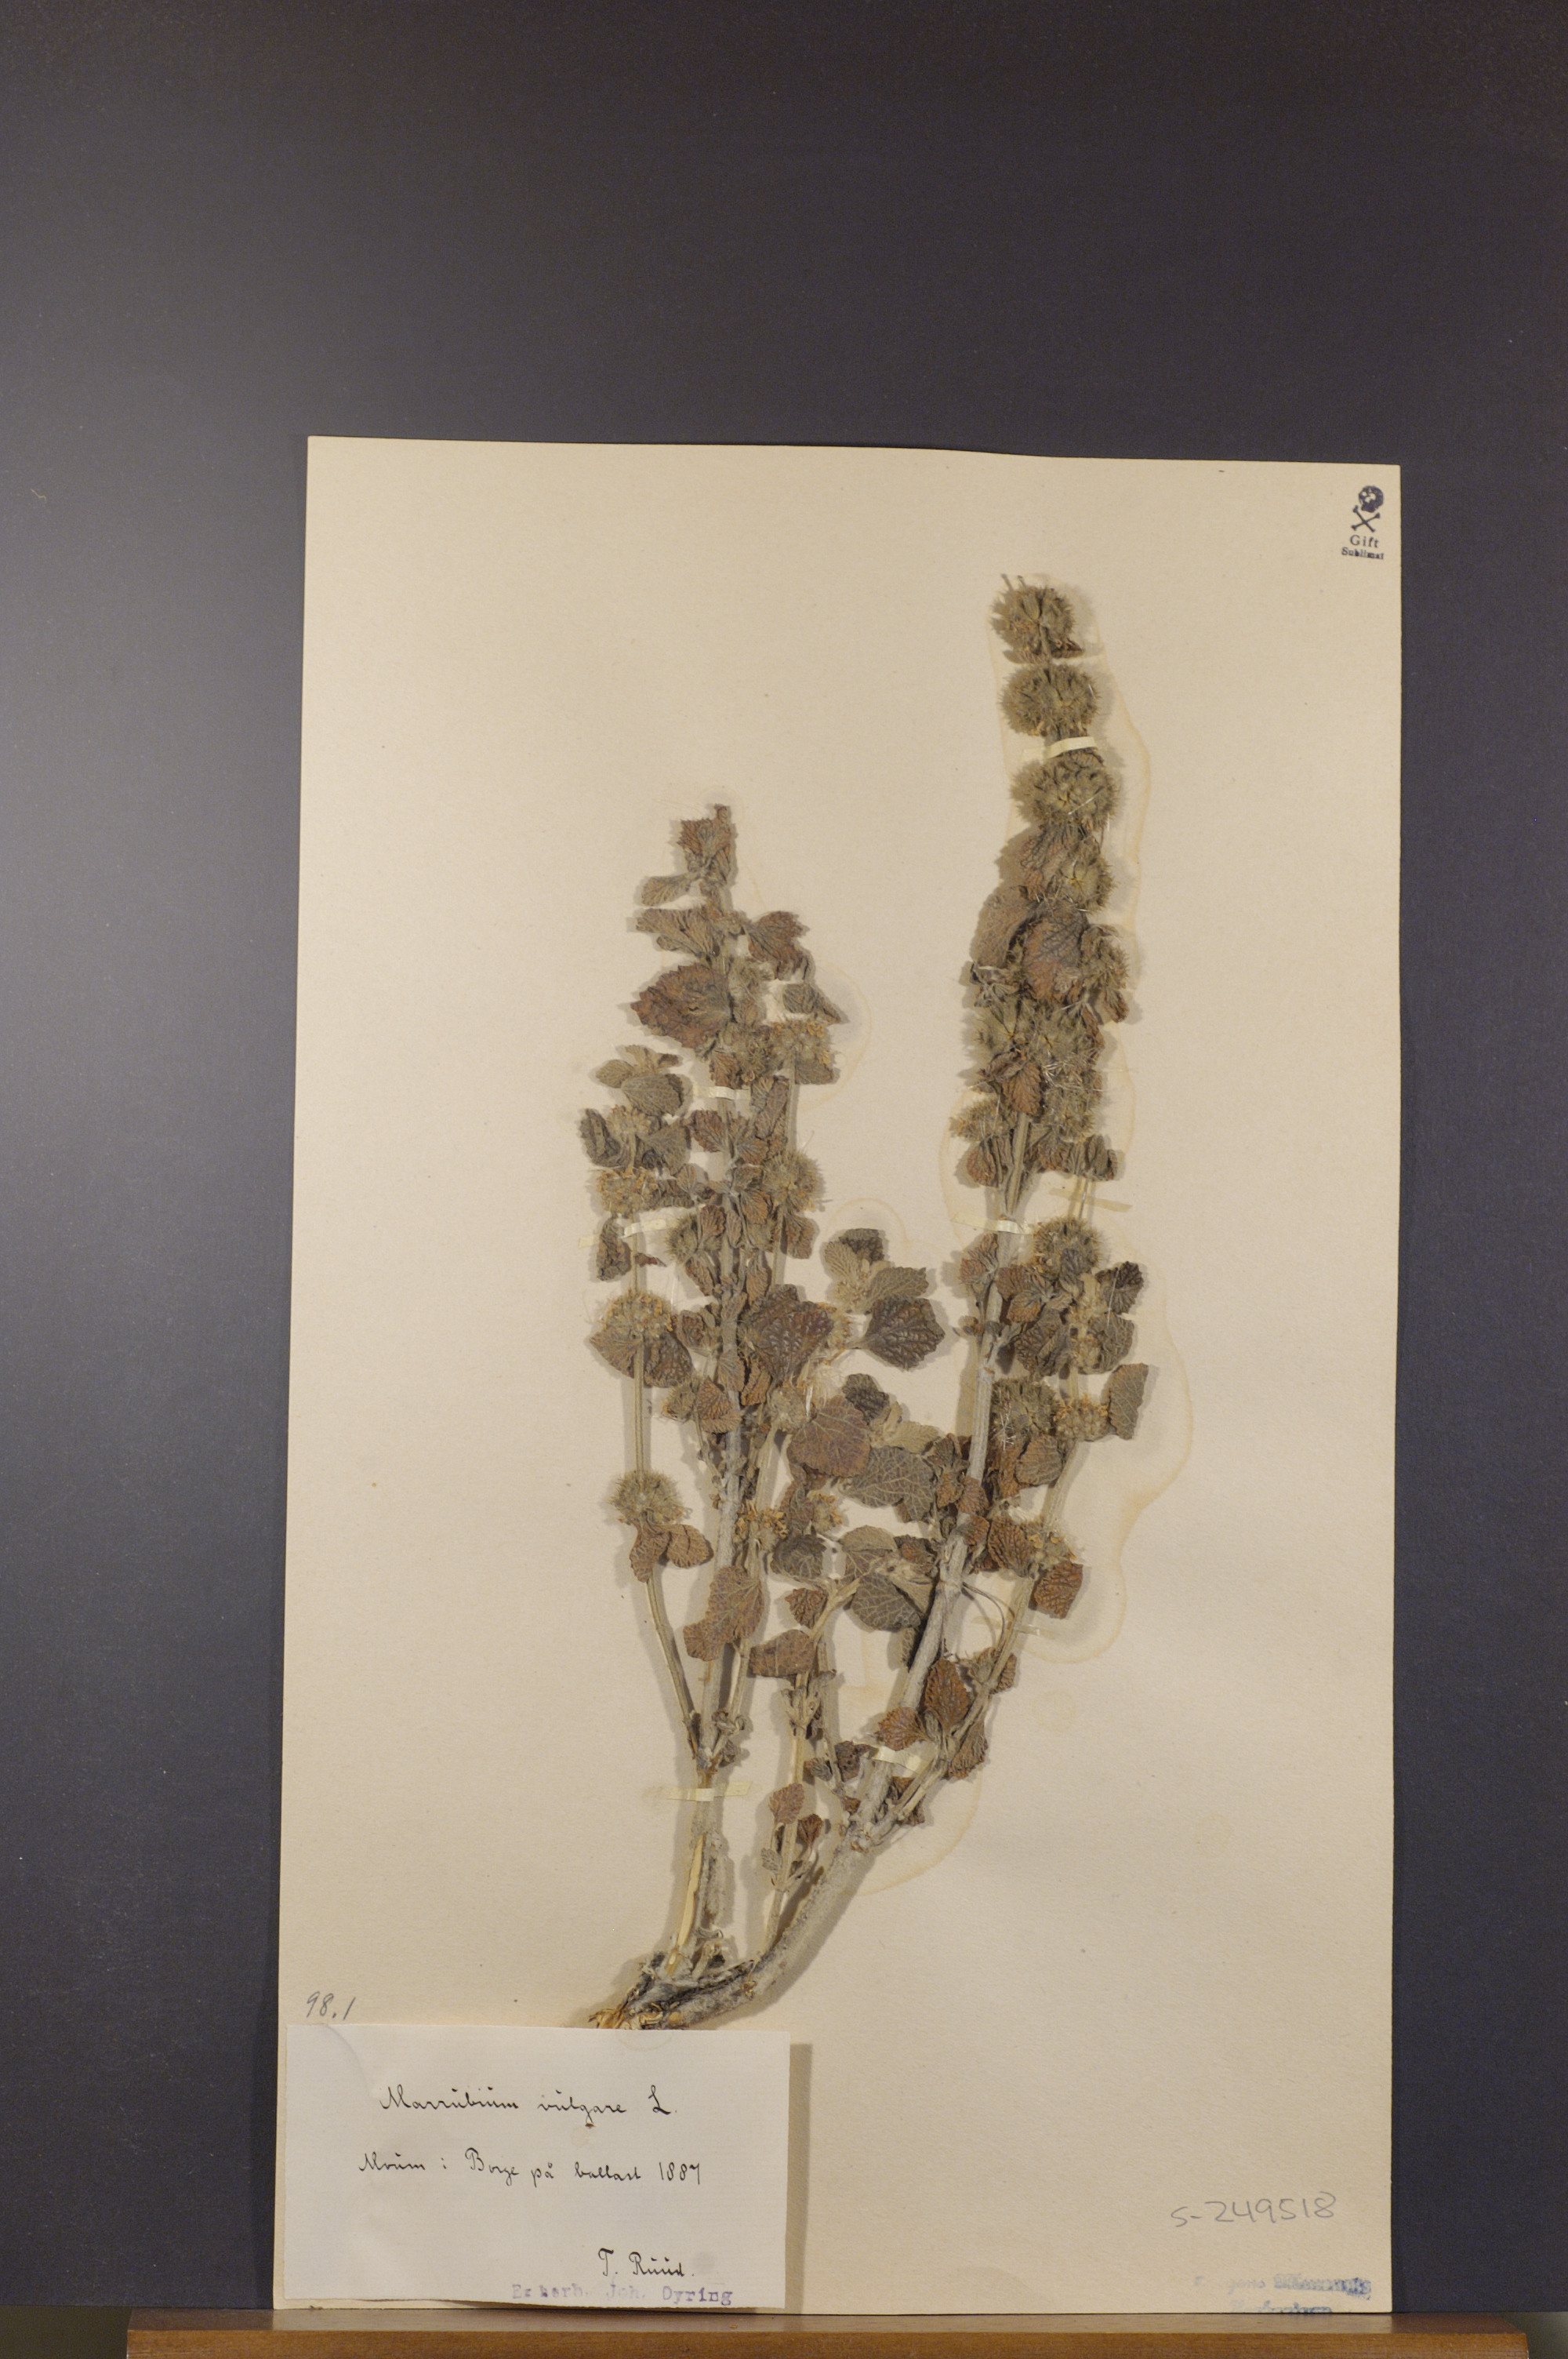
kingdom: Plantae
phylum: Tracheophyta
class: Magnoliopsida
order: Lamiales
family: Lamiaceae
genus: Marrubium
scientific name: Marrubium vulgare
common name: Horehound
